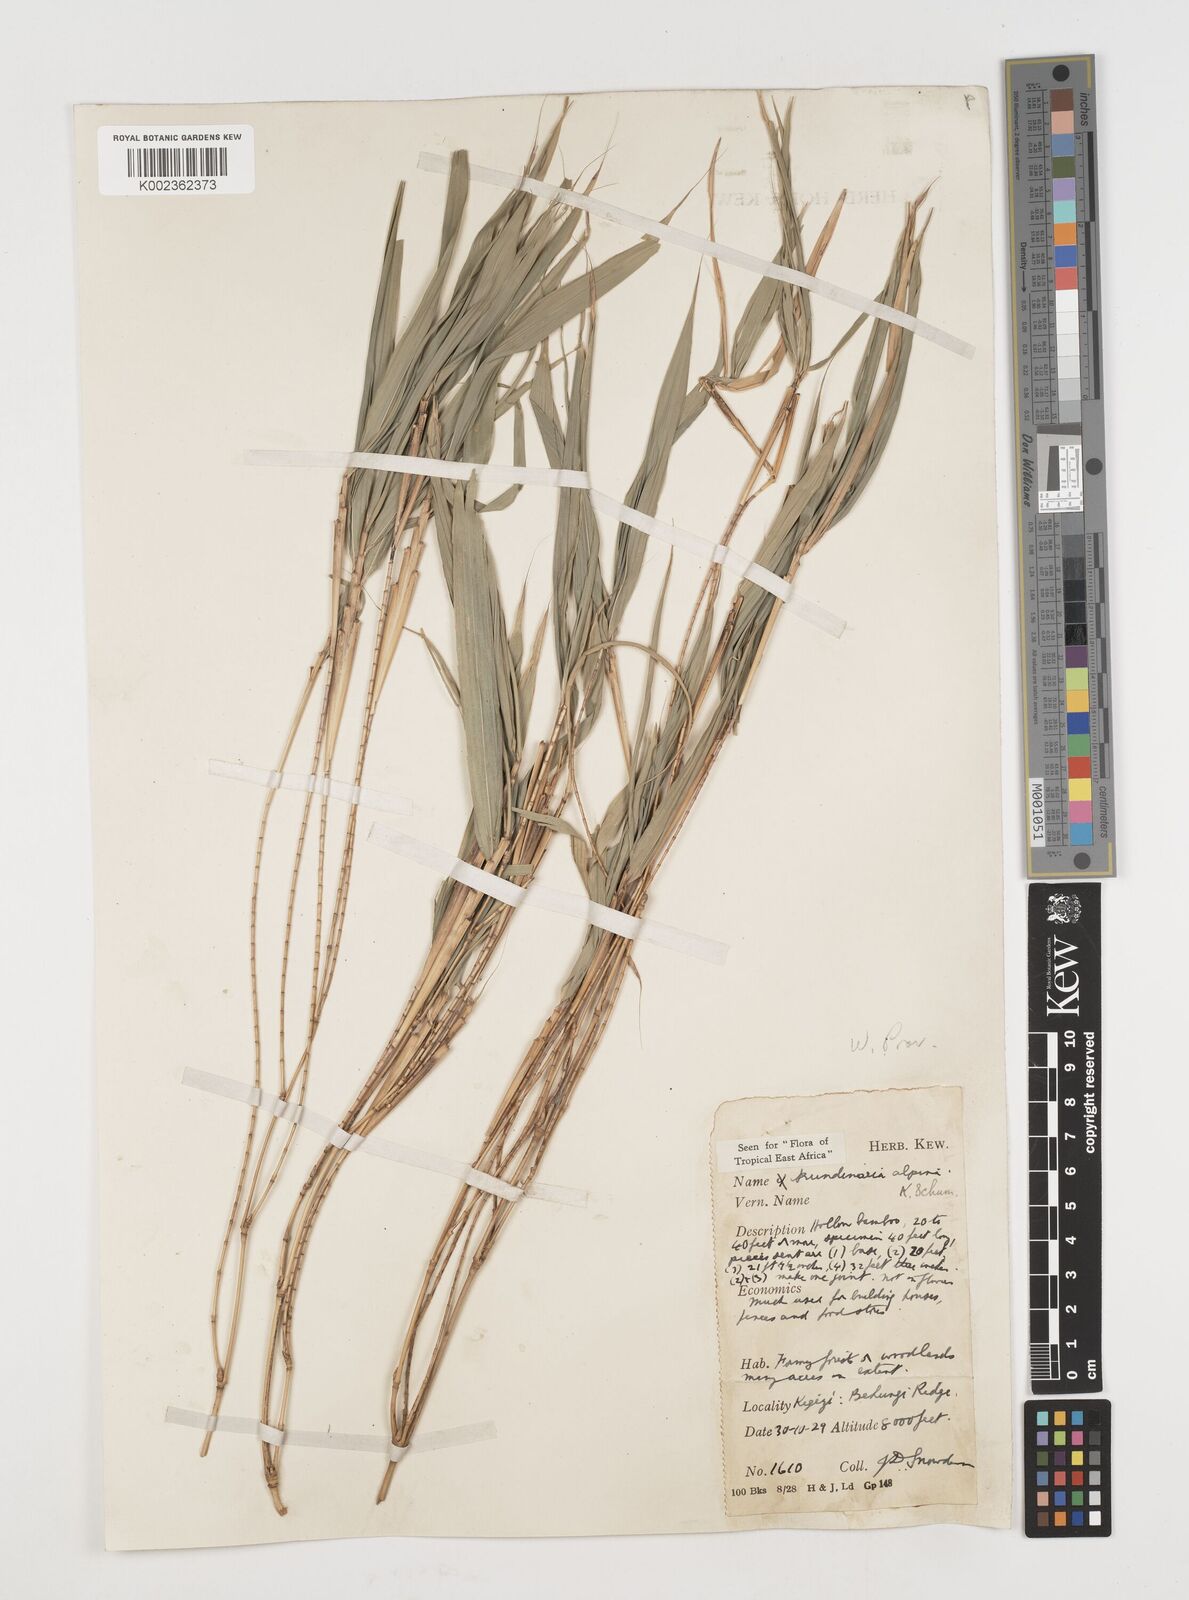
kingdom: Plantae
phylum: Tracheophyta
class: Liliopsida
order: Poales
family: Poaceae
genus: Oldeania
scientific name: Oldeania alpina
